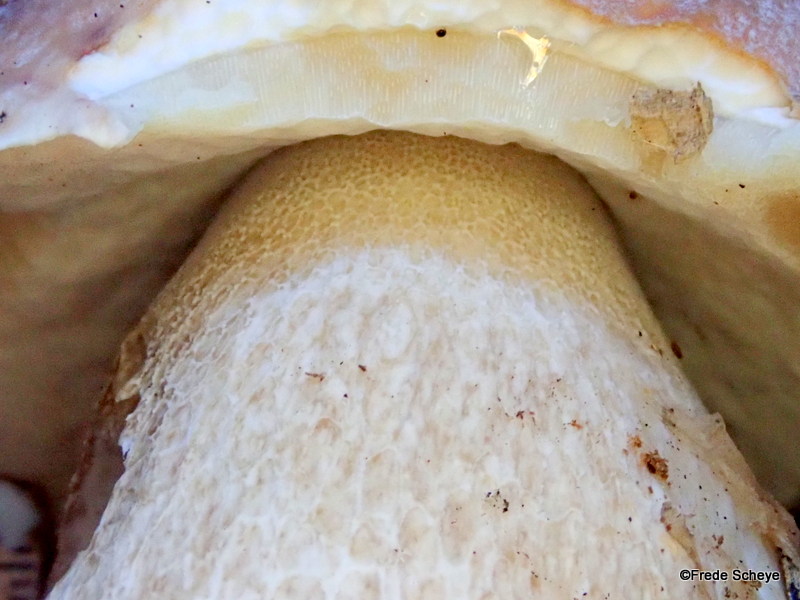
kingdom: Fungi
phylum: Basidiomycota
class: Agaricomycetes
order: Boletales
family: Boletaceae
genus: Boletus
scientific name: Boletus edulis
